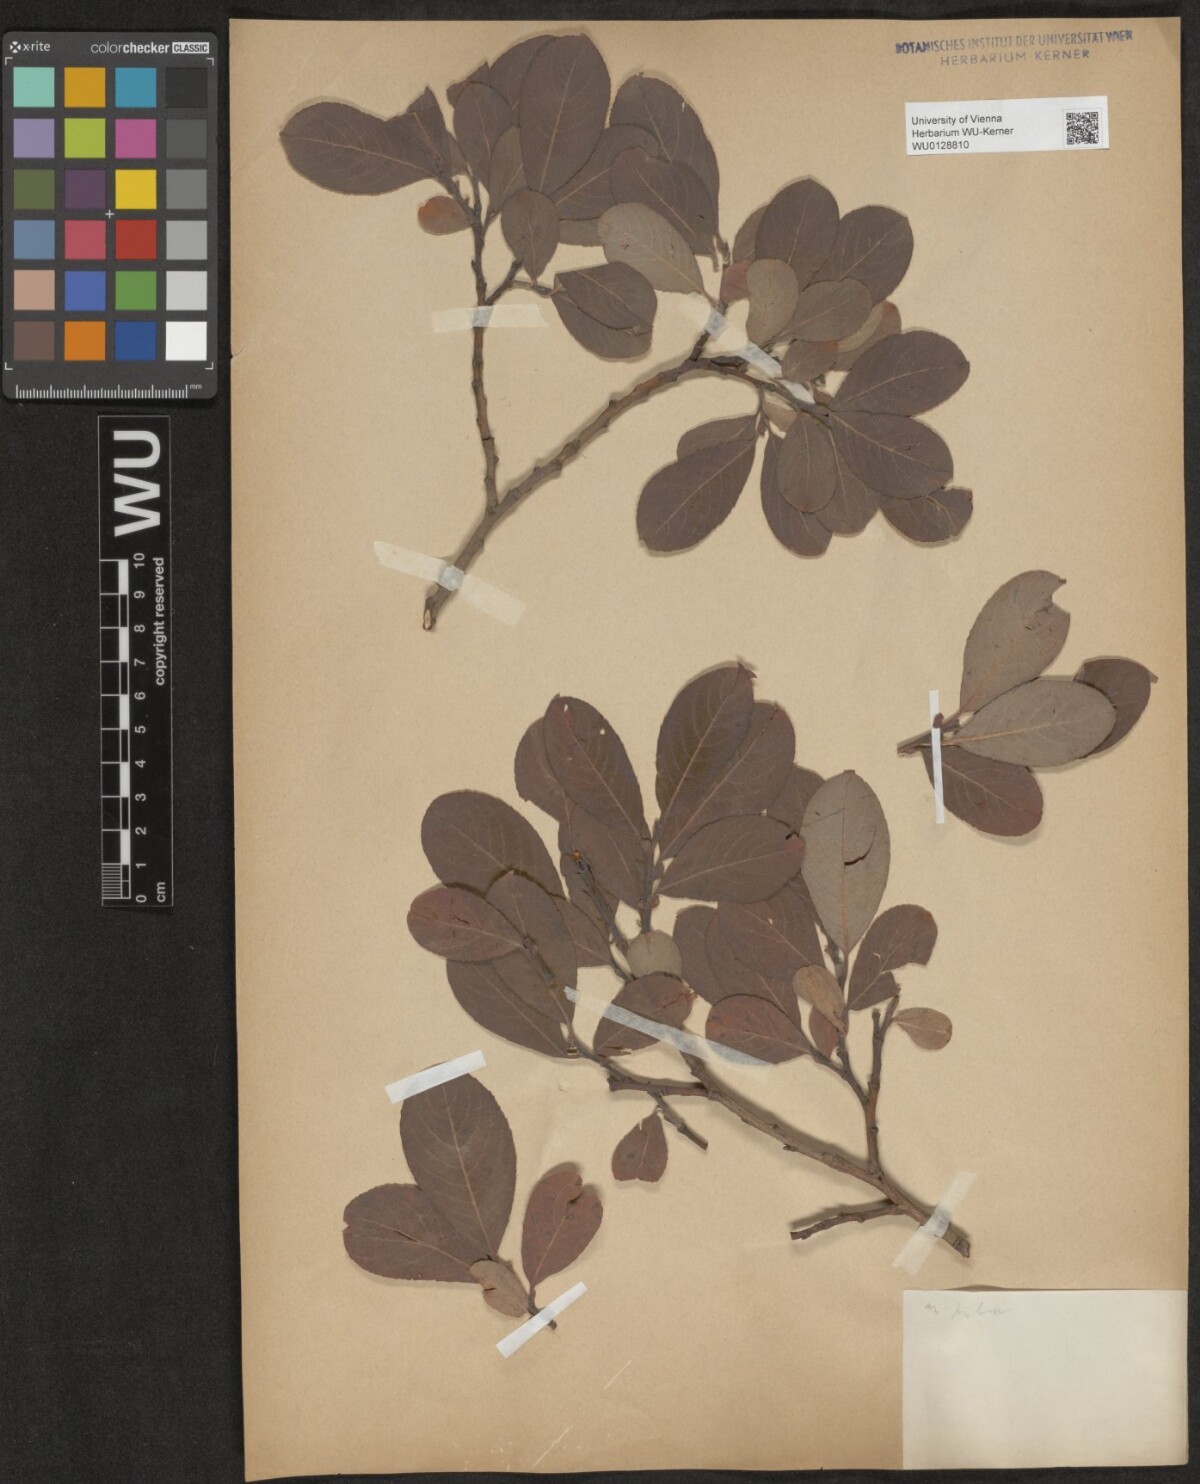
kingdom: Plantae
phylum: Tracheophyta
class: Magnoliopsida
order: Malpighiales
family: Salicaceae
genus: Salix
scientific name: Salix appendiculata
